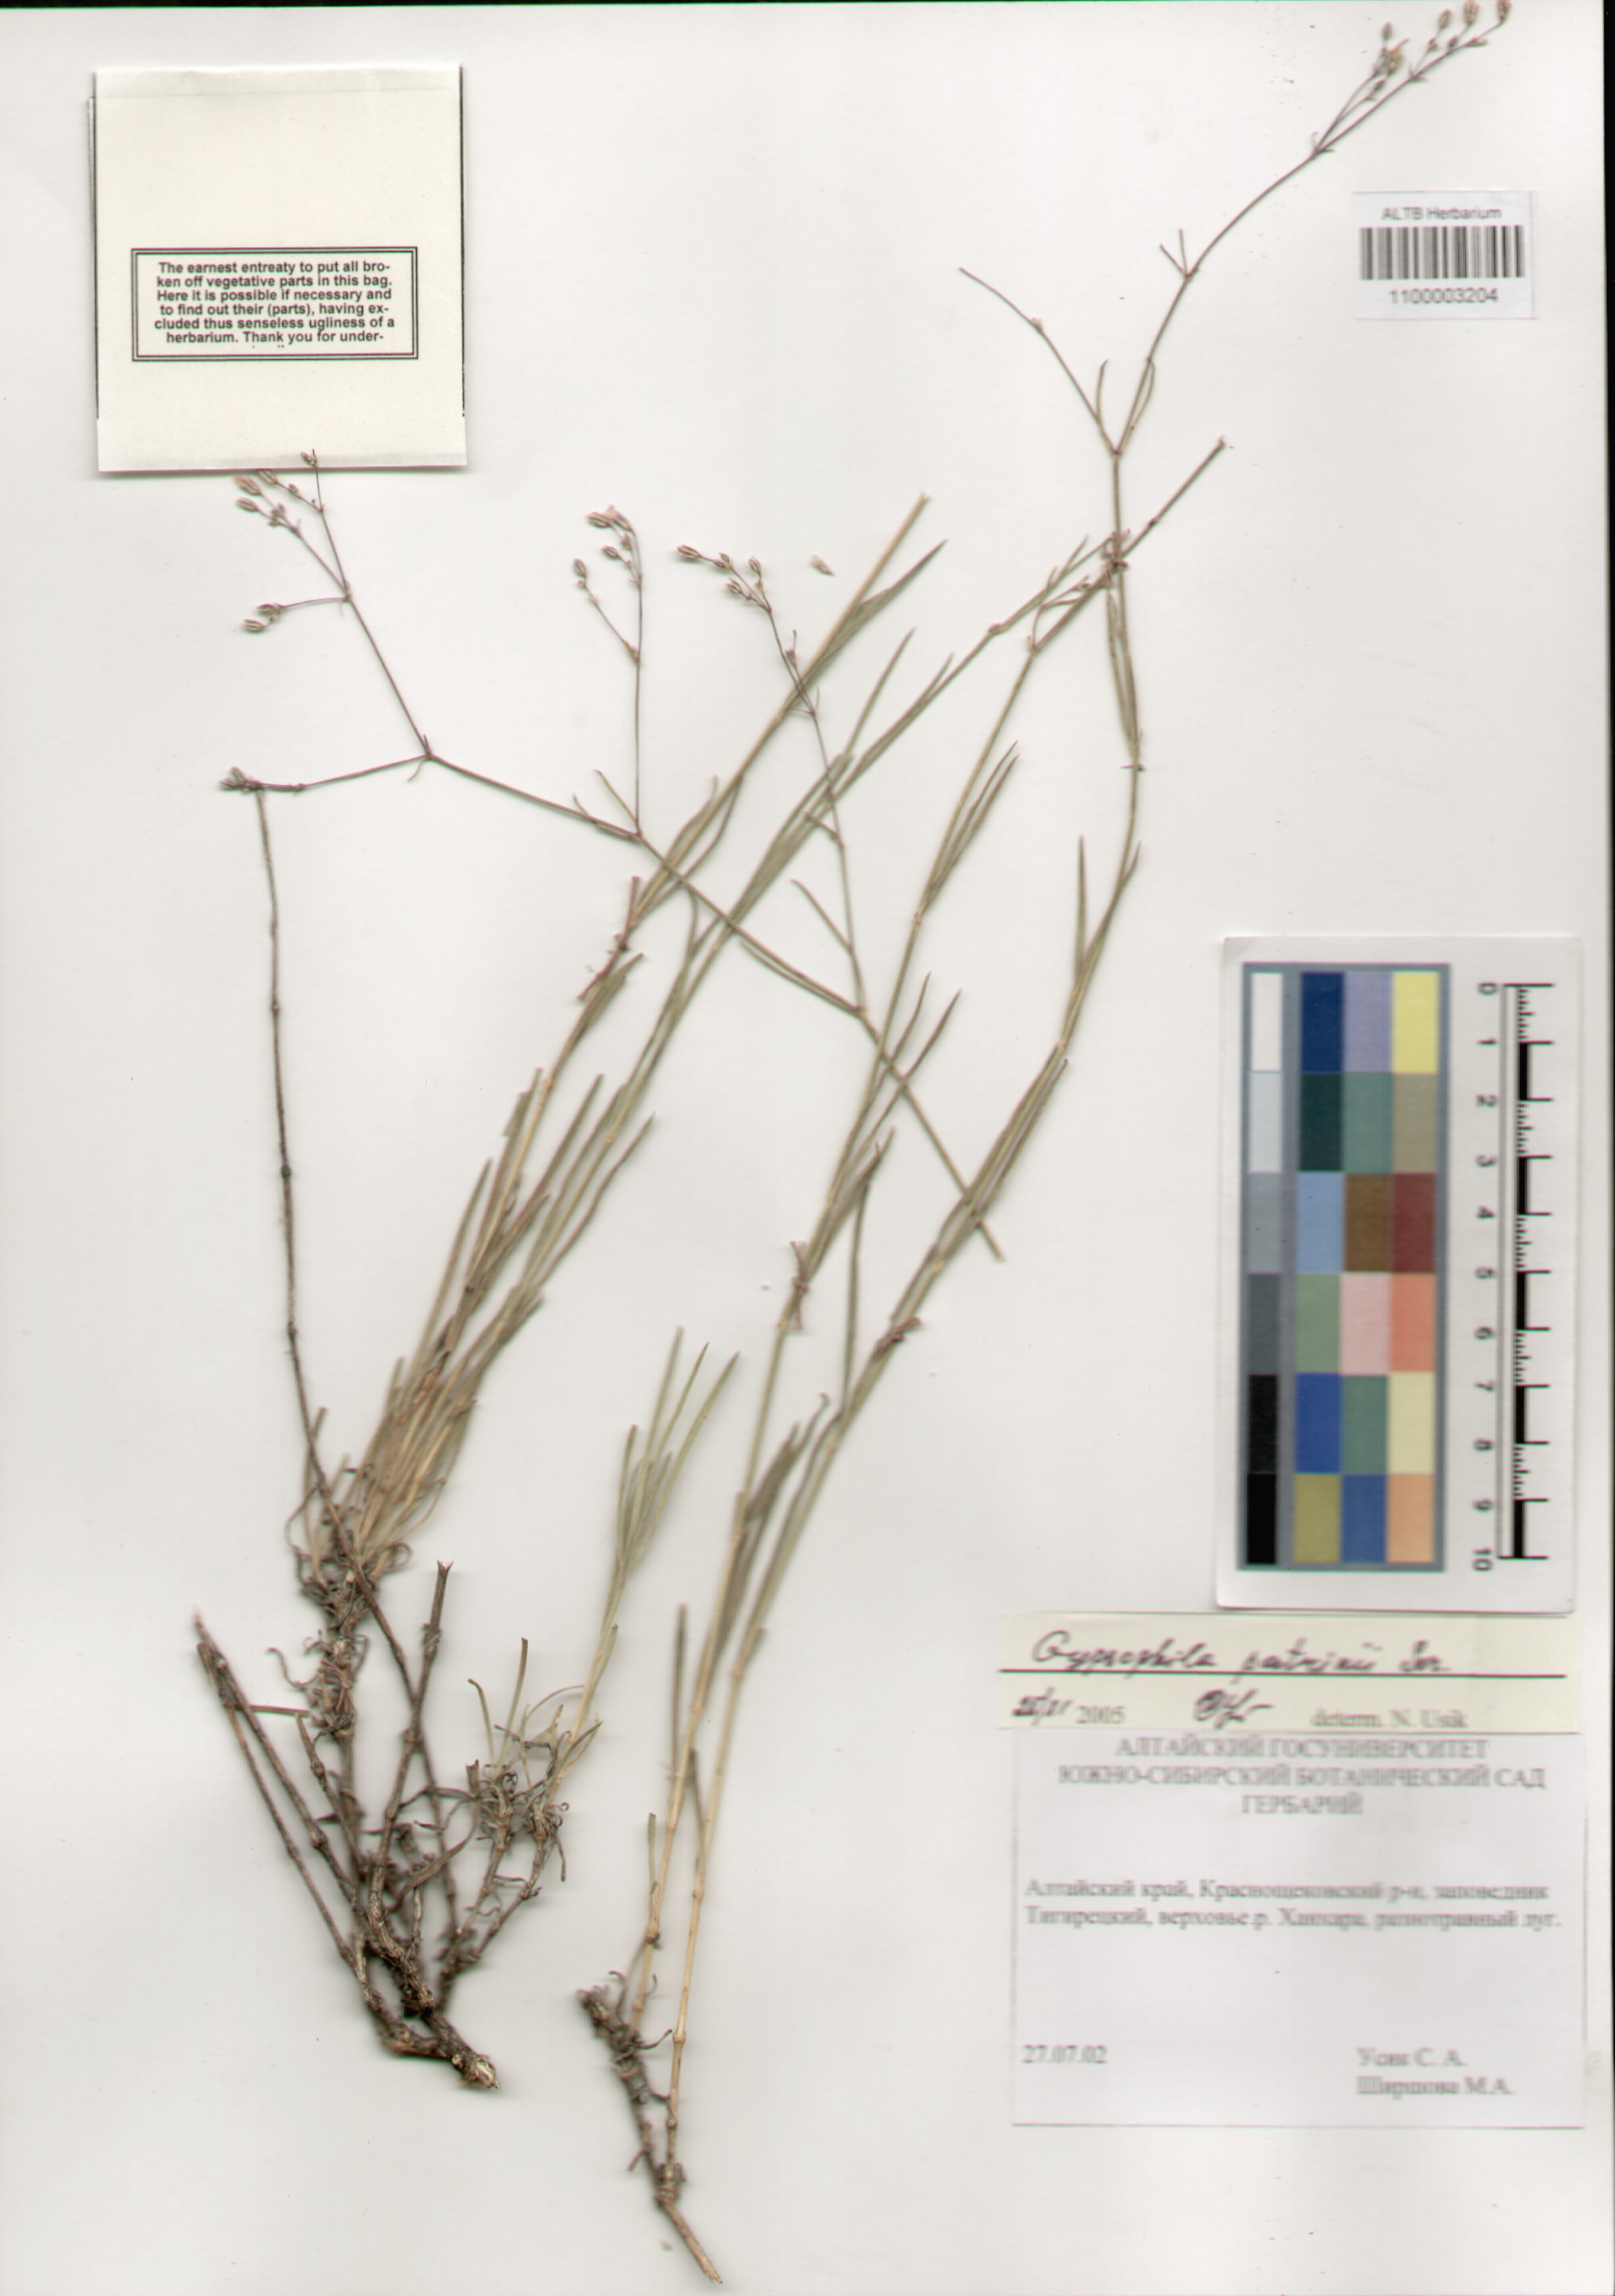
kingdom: Plantae
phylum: Tracheophyta
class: Magnoliopsida
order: Caryophyllales
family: Caryophyllaceae
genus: Gypsophila
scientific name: Gypsophila patrinii
